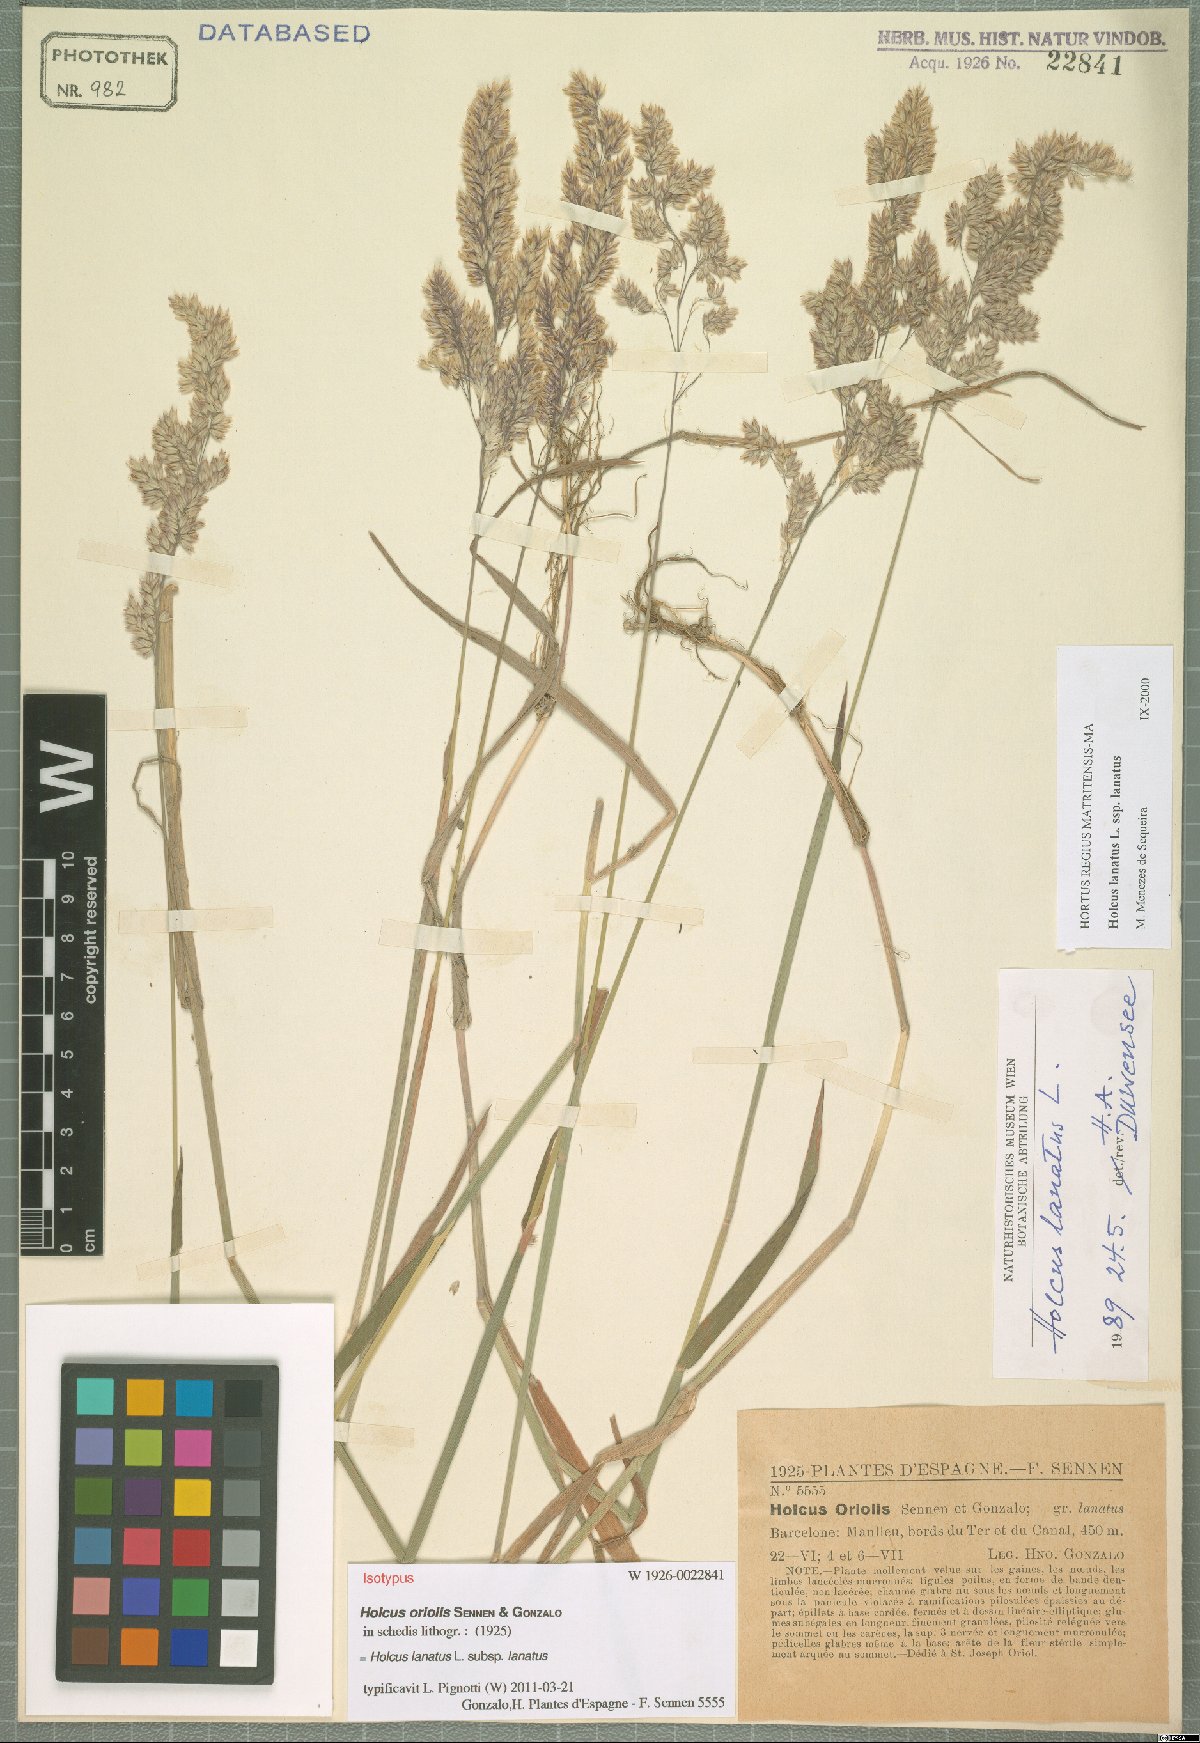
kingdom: Plantae
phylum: Tracheophyta
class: Liliopsida
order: Poales
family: Poaceae
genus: Holcus
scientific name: Holcus lanatus
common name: Yorkshire-fog
